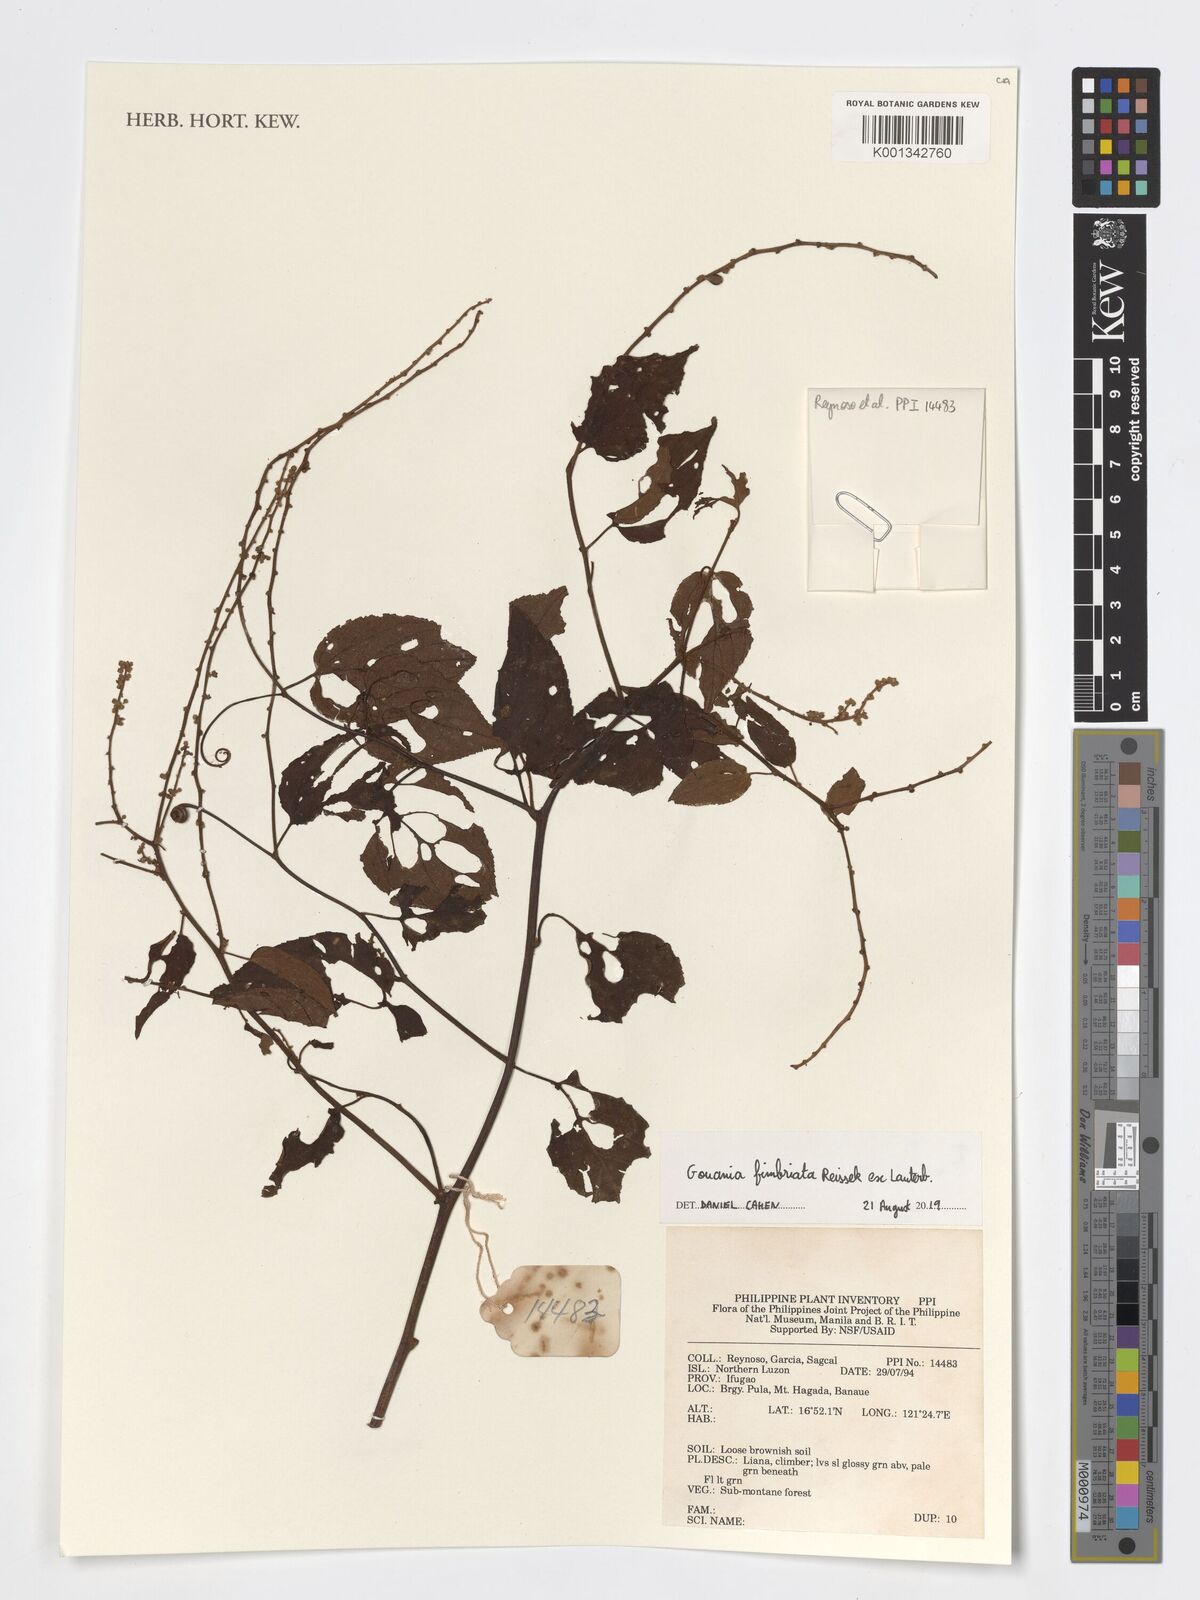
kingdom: Plantae
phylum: Tracheophyta
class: Magnoliopsida
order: Rosales
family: Rhamnaceae
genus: Gouania
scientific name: Gouania fimbriata
